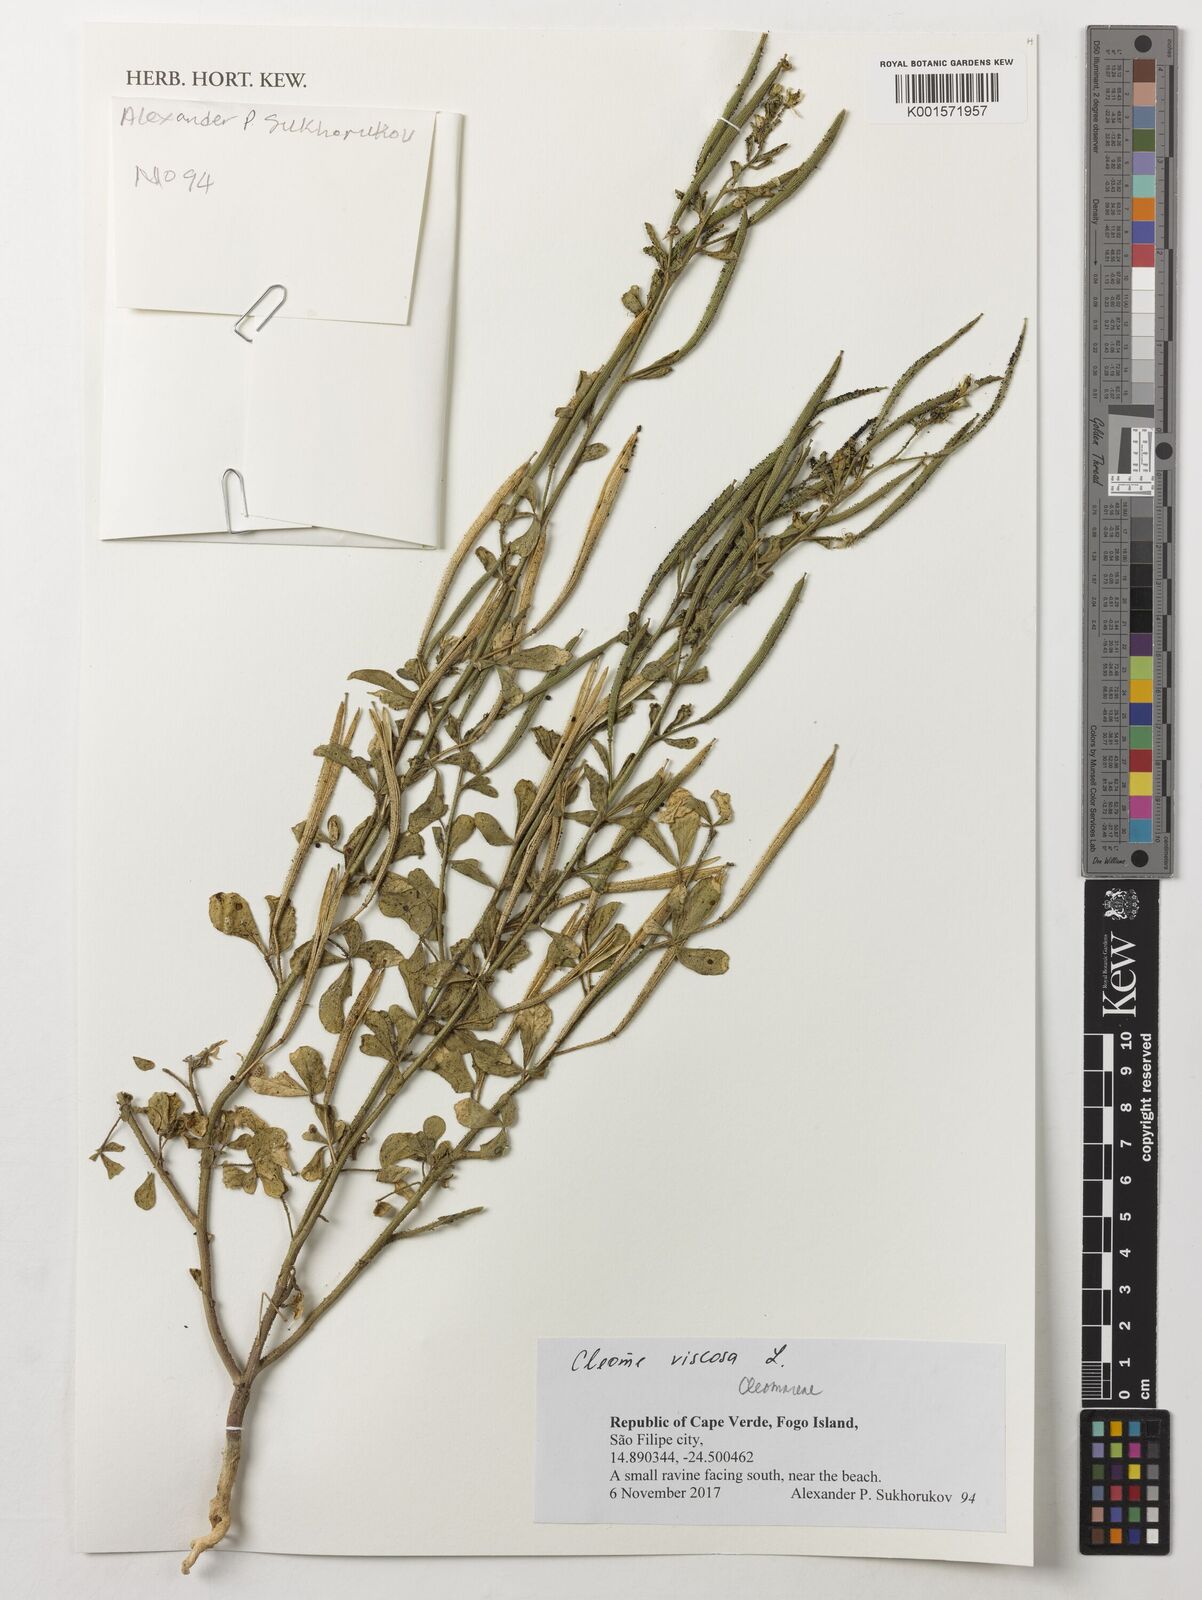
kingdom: Plantae
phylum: Tracheophyta
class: Magnoliopsida
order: Brassicales
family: Cleomaceae
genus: Arivela
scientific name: Arivela viscosa
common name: Asian spiderflower
